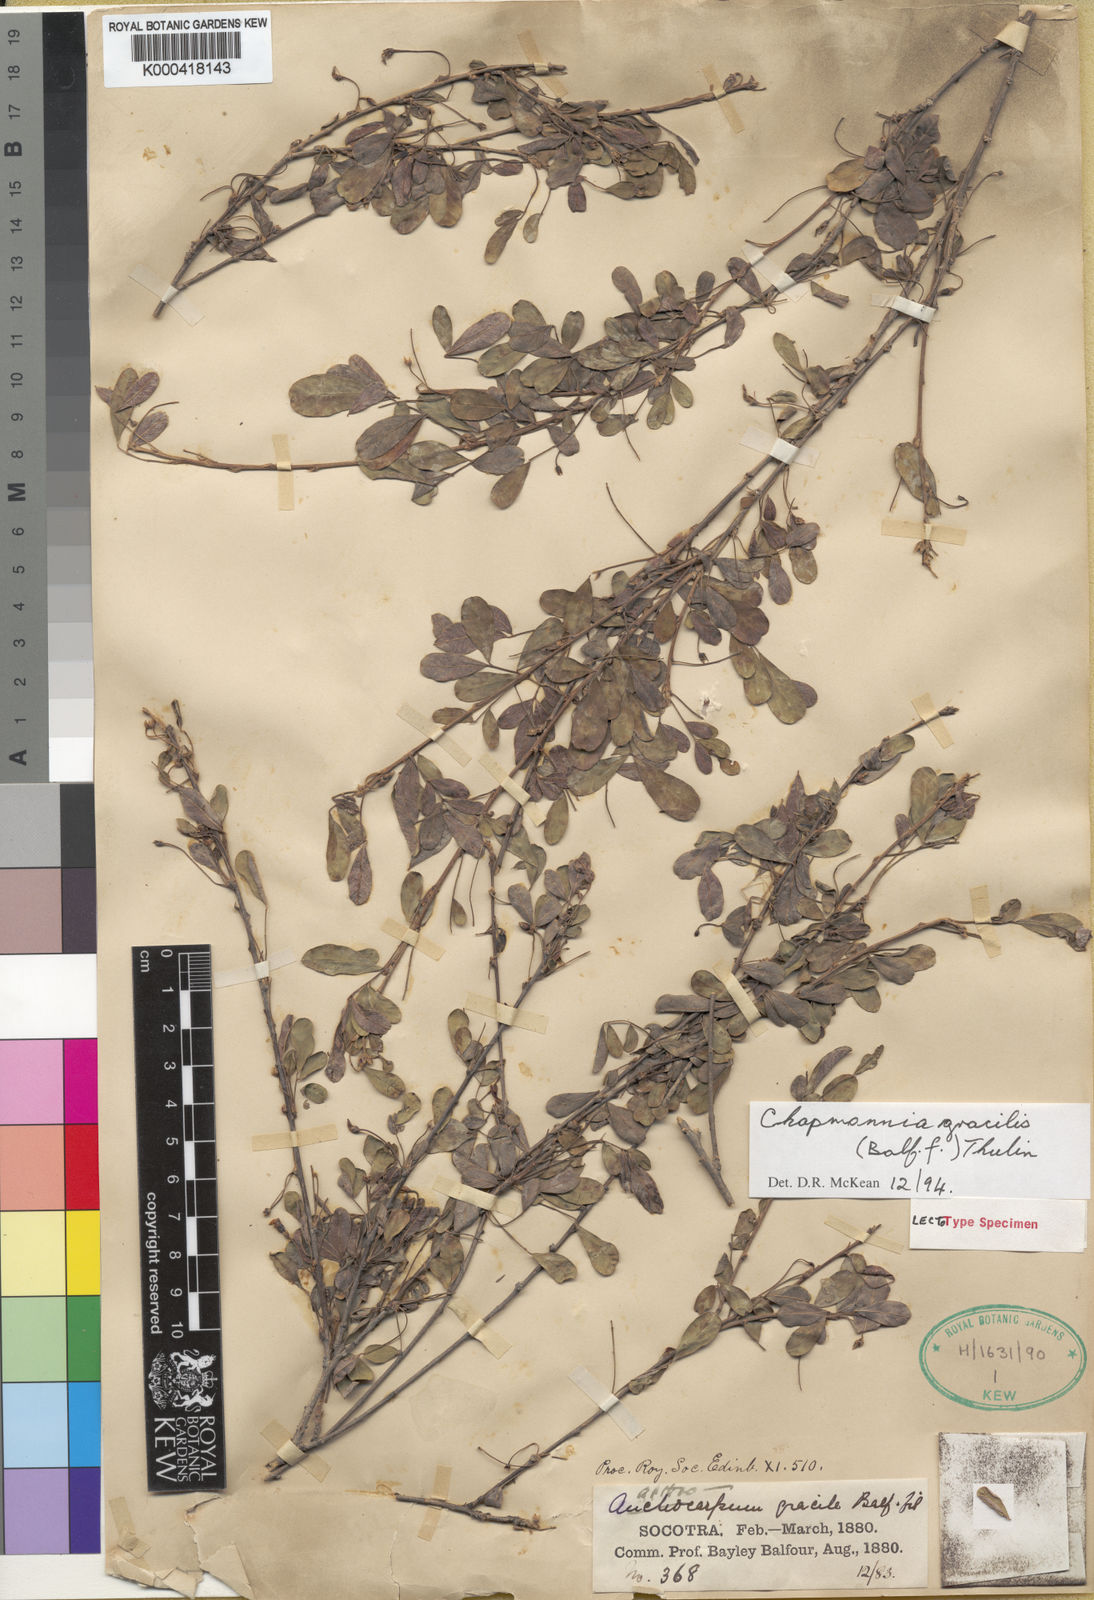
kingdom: Plantae
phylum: Tracheophyta
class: Magnoliopsida
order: Fabales
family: Fabaceae
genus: Chapmannia
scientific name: Chapmannia gracilis
